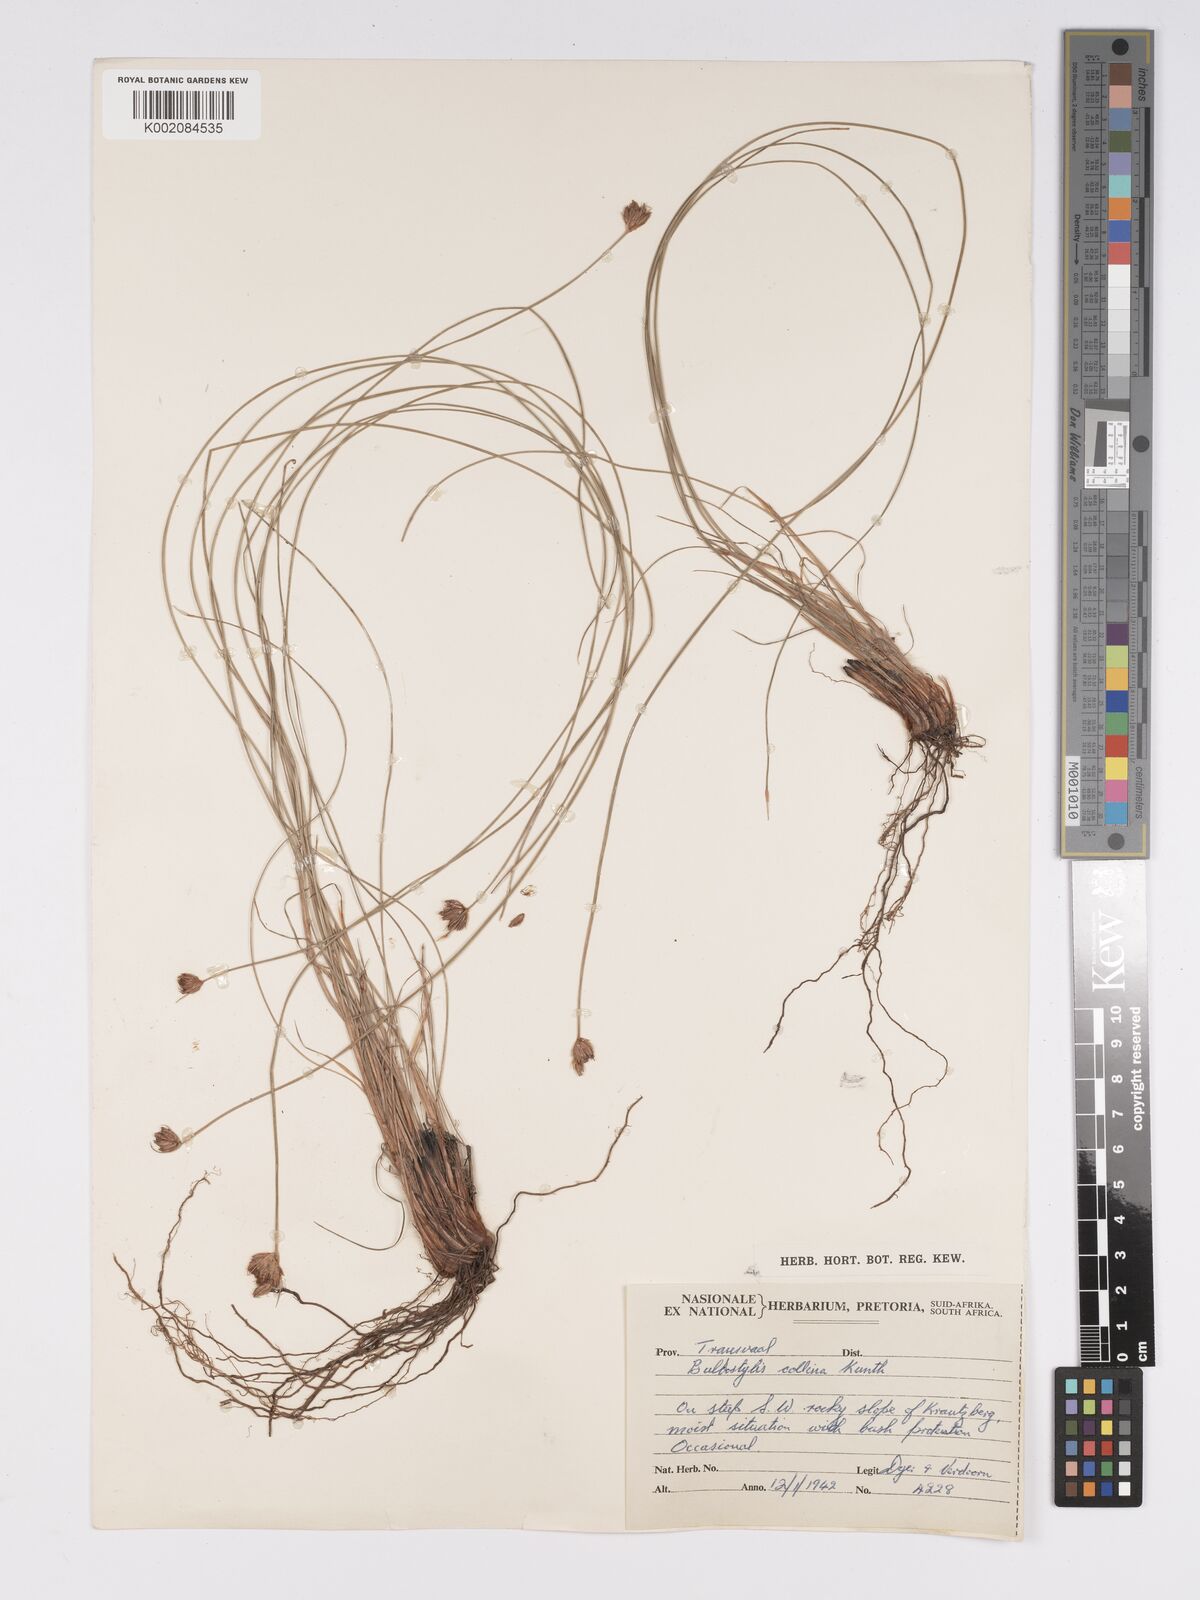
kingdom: Plantae
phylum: Tracheophyta
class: Liliopsida
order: Poales
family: Cyperaceae
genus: Bulbostylis
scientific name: Bulbostylis contexta
